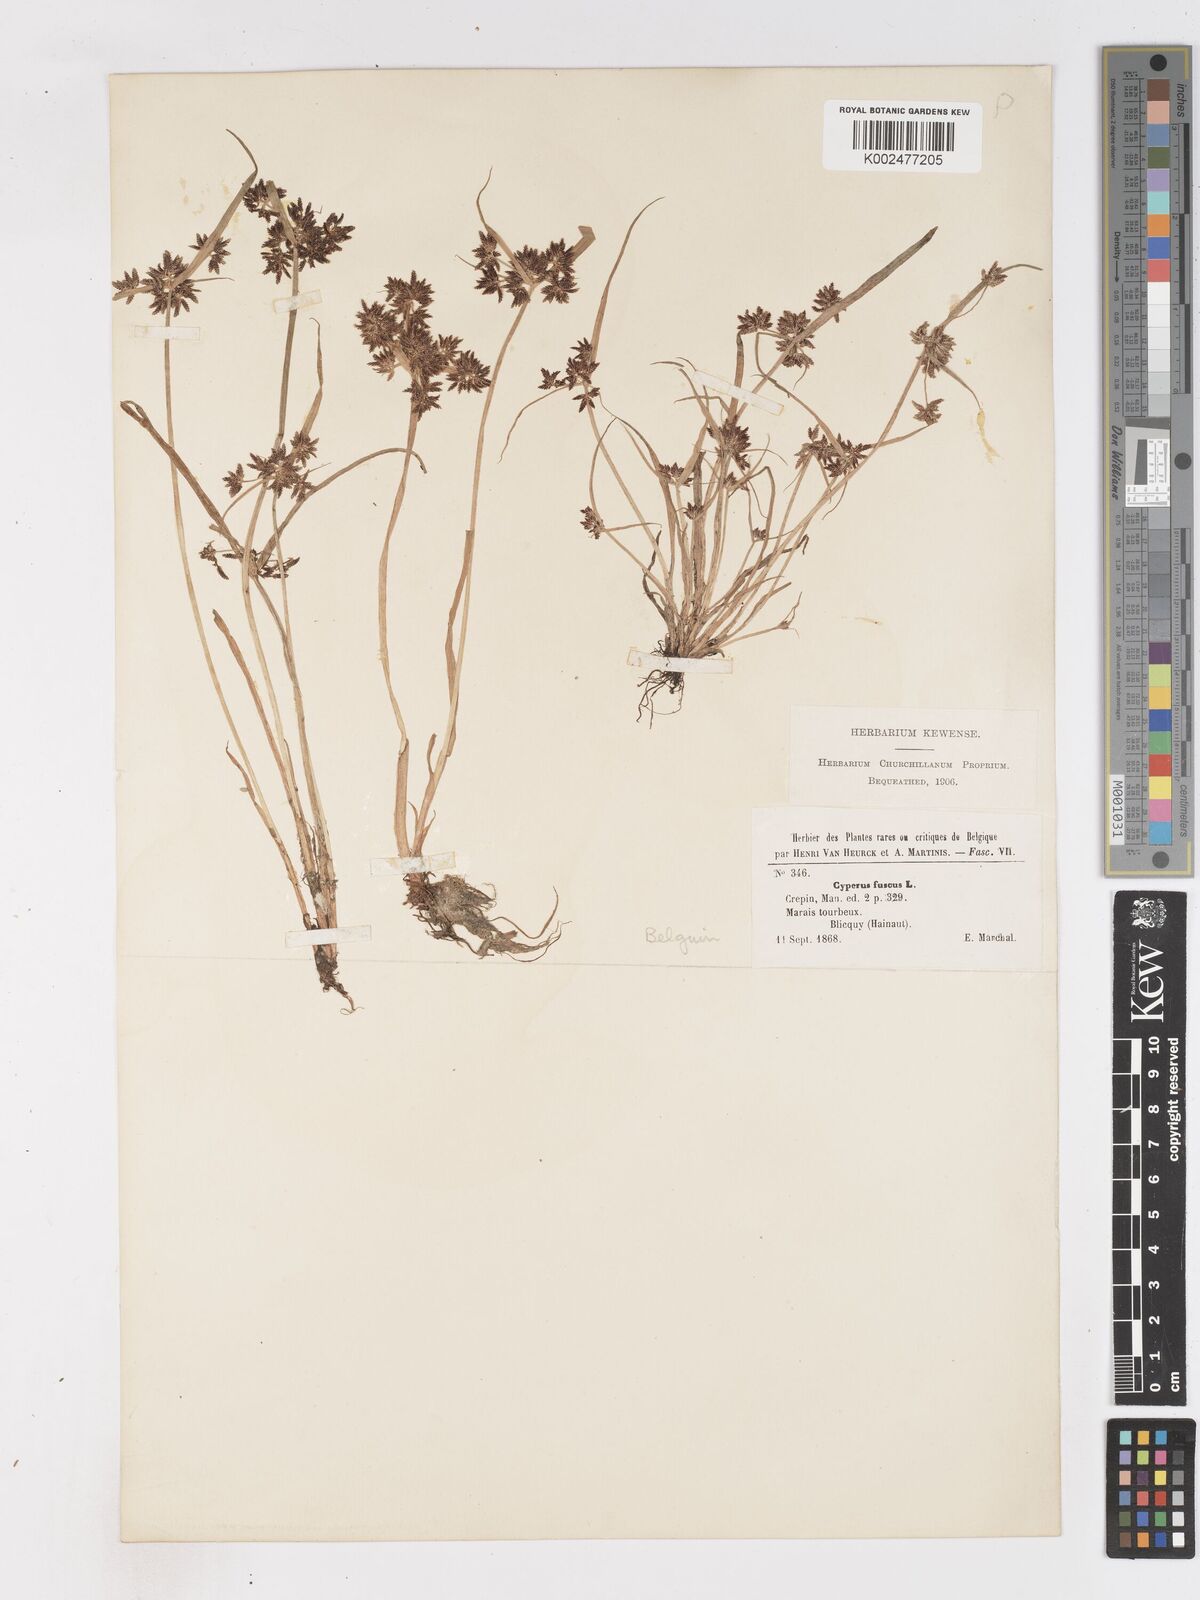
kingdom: Plantae
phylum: Tracheophyta
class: Liliopsida
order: Poales
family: Cyperaceae
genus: Cyperus
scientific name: Cyperus fuscus
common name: Brown galingale
